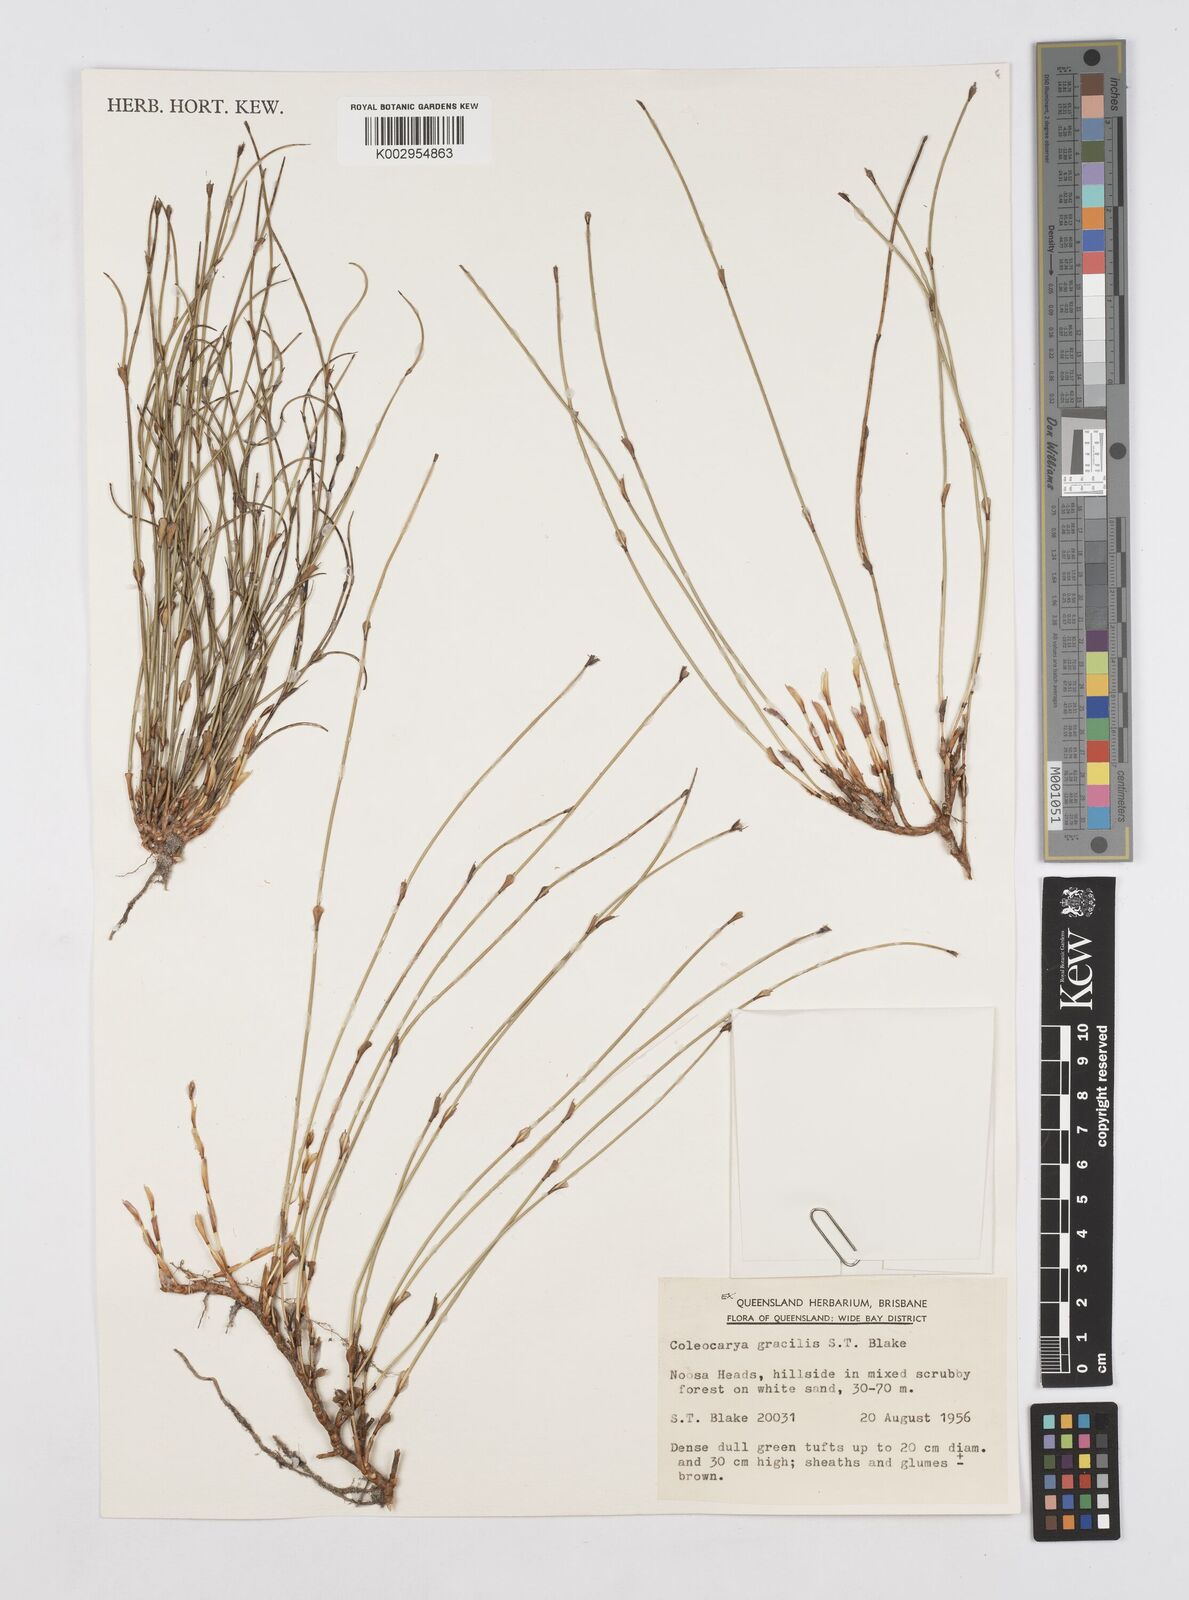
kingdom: Plantae
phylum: Tracheophyta
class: Liliopsida
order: Poales
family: Restionaceae
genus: Coleocarya
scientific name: Coleocarya gracilis
